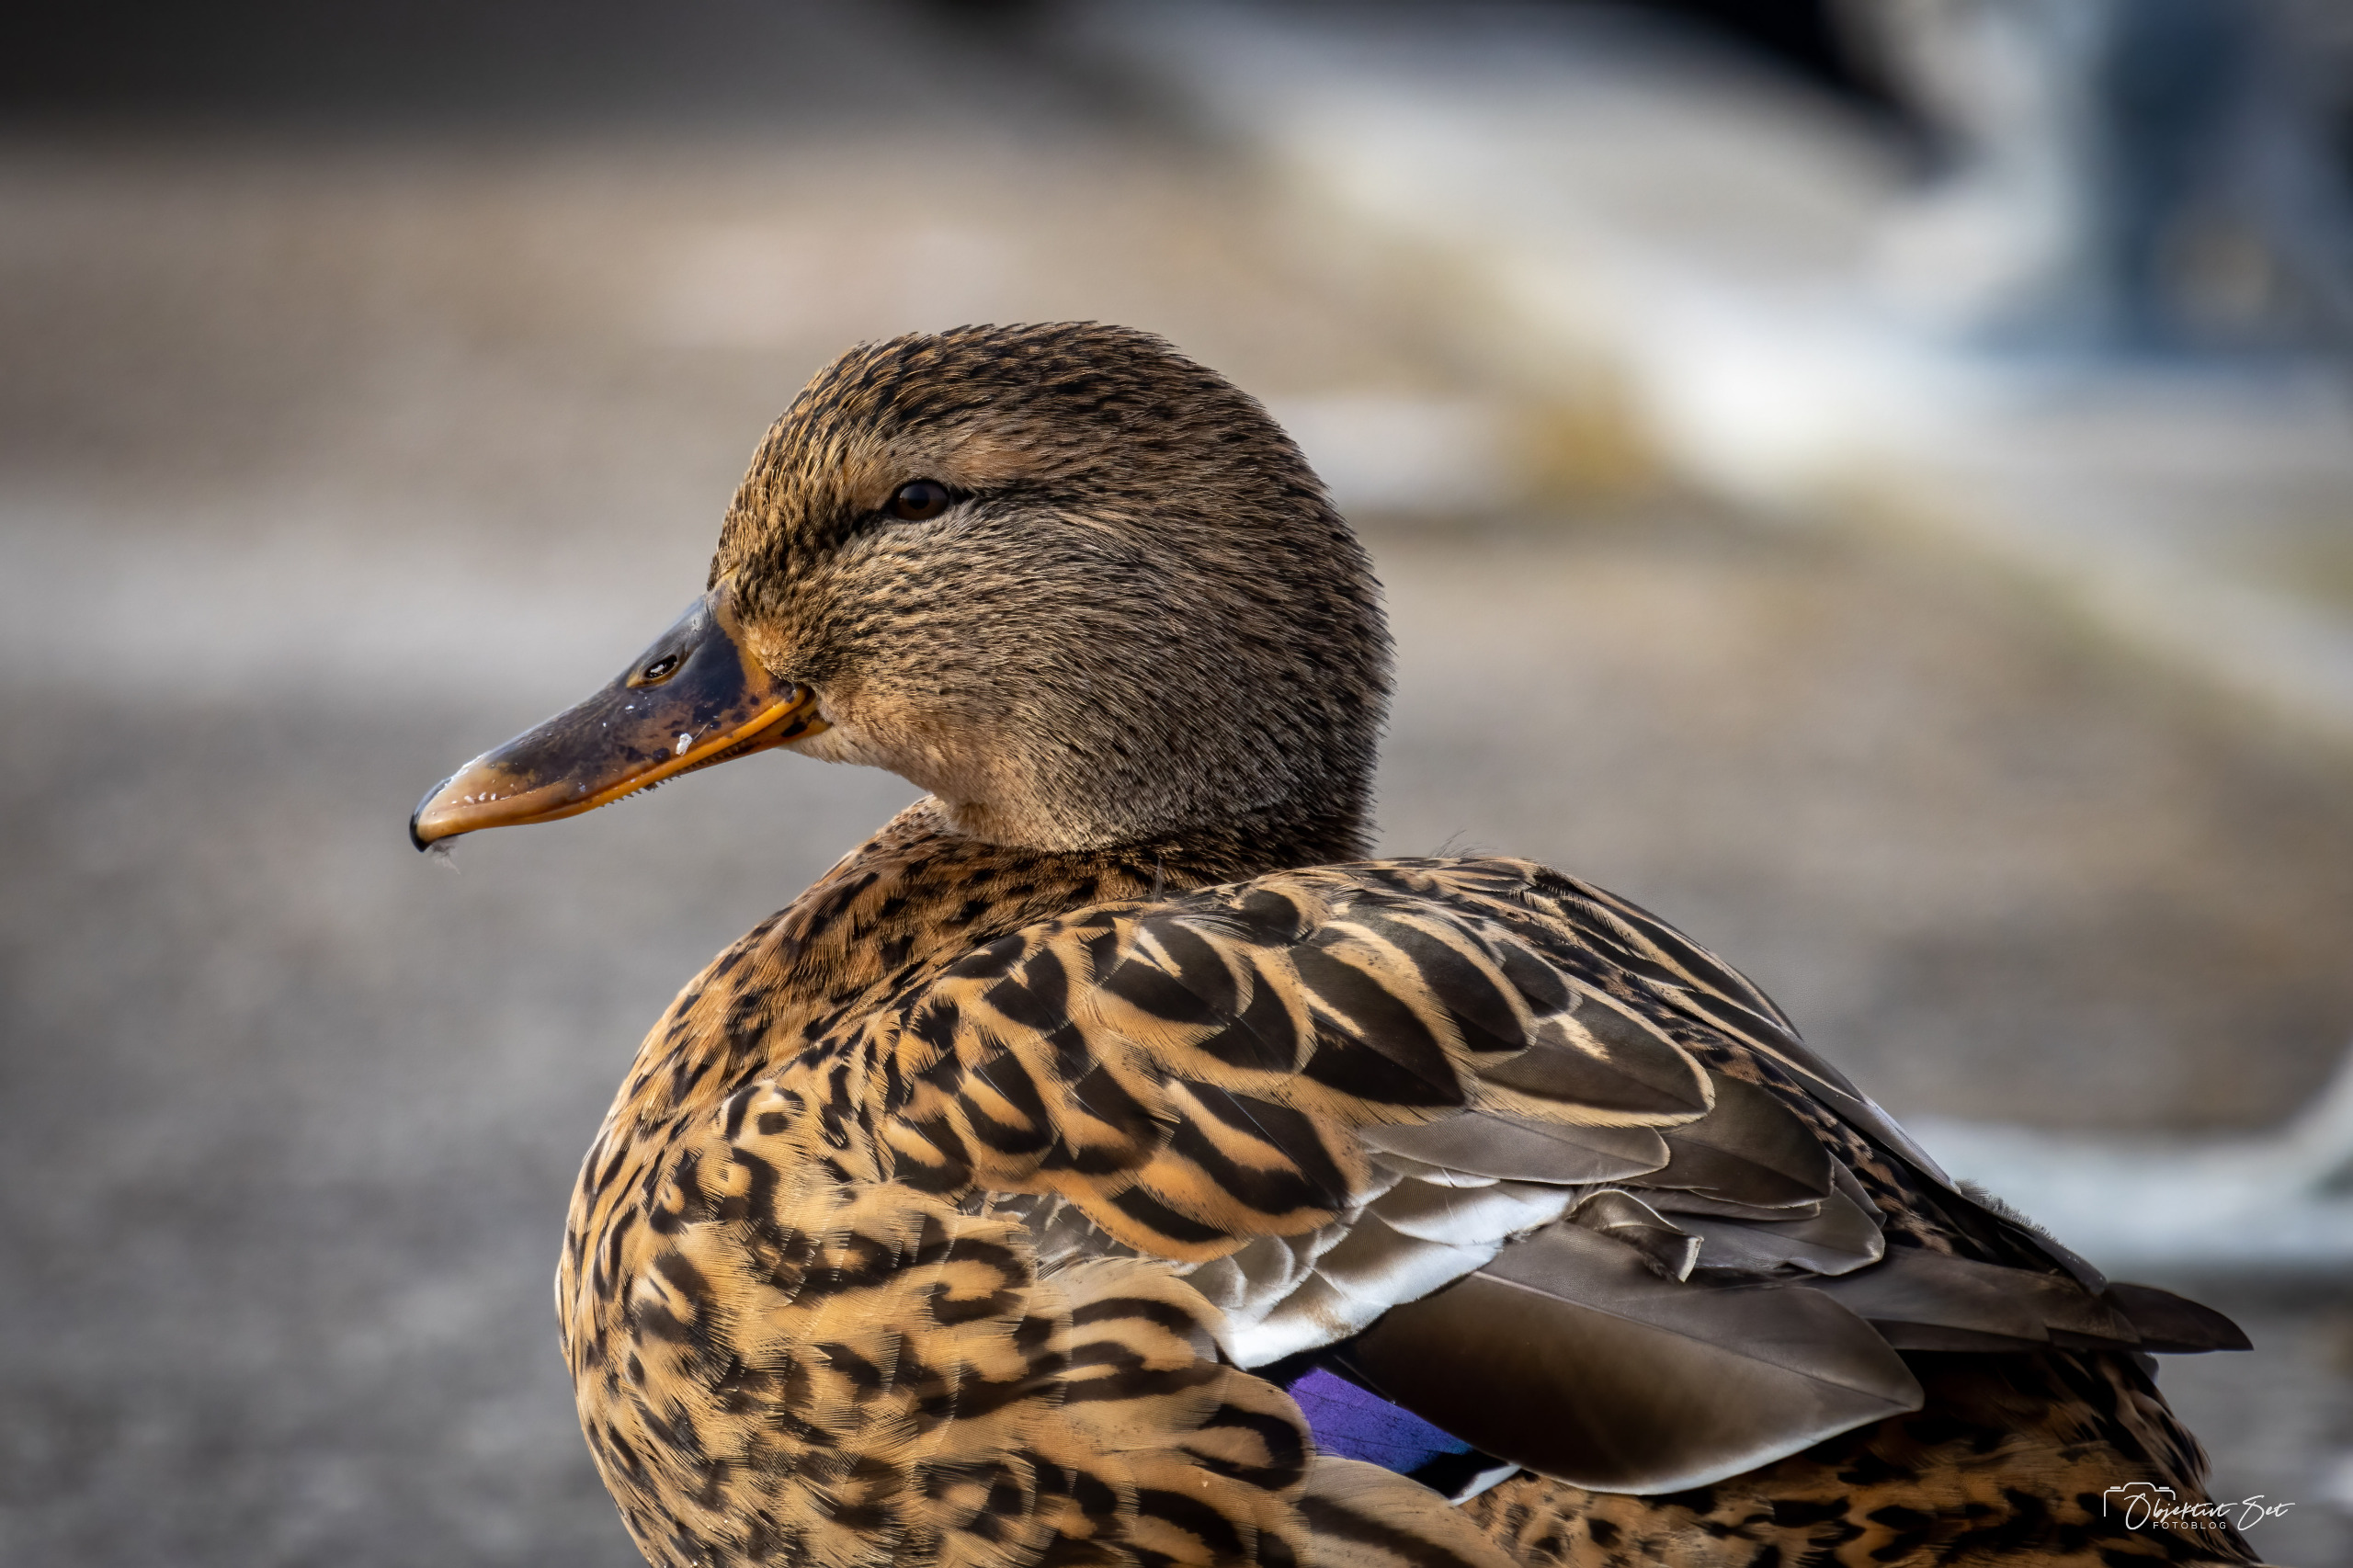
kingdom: Animalia
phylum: Chordata
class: Aves
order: Anseriformes
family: Anatidae
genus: Anas
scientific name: Anas platyrhynchos
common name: Gråand
